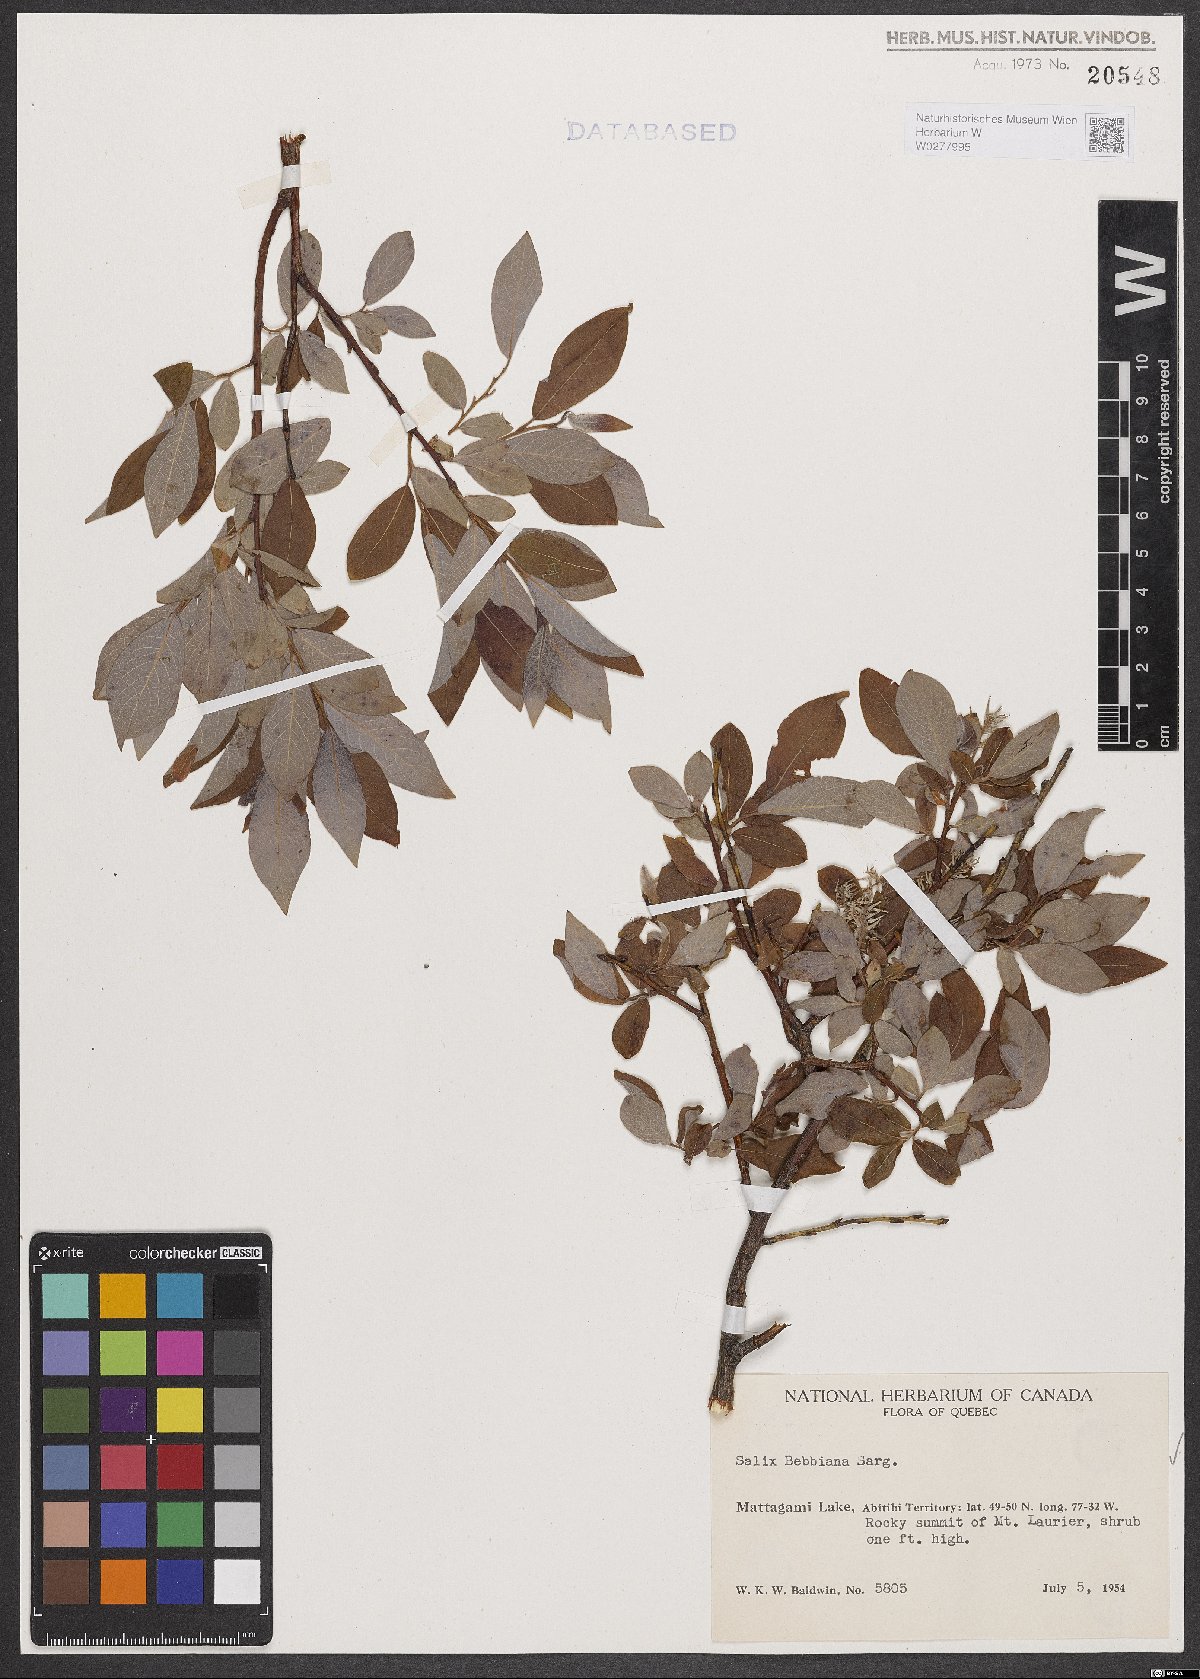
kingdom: Plantae
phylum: Tracheophyta
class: Magnoliopsida
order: Malpighiales
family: Salicaceae
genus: Salix
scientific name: Salix bebbiana
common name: Bebb's willow
